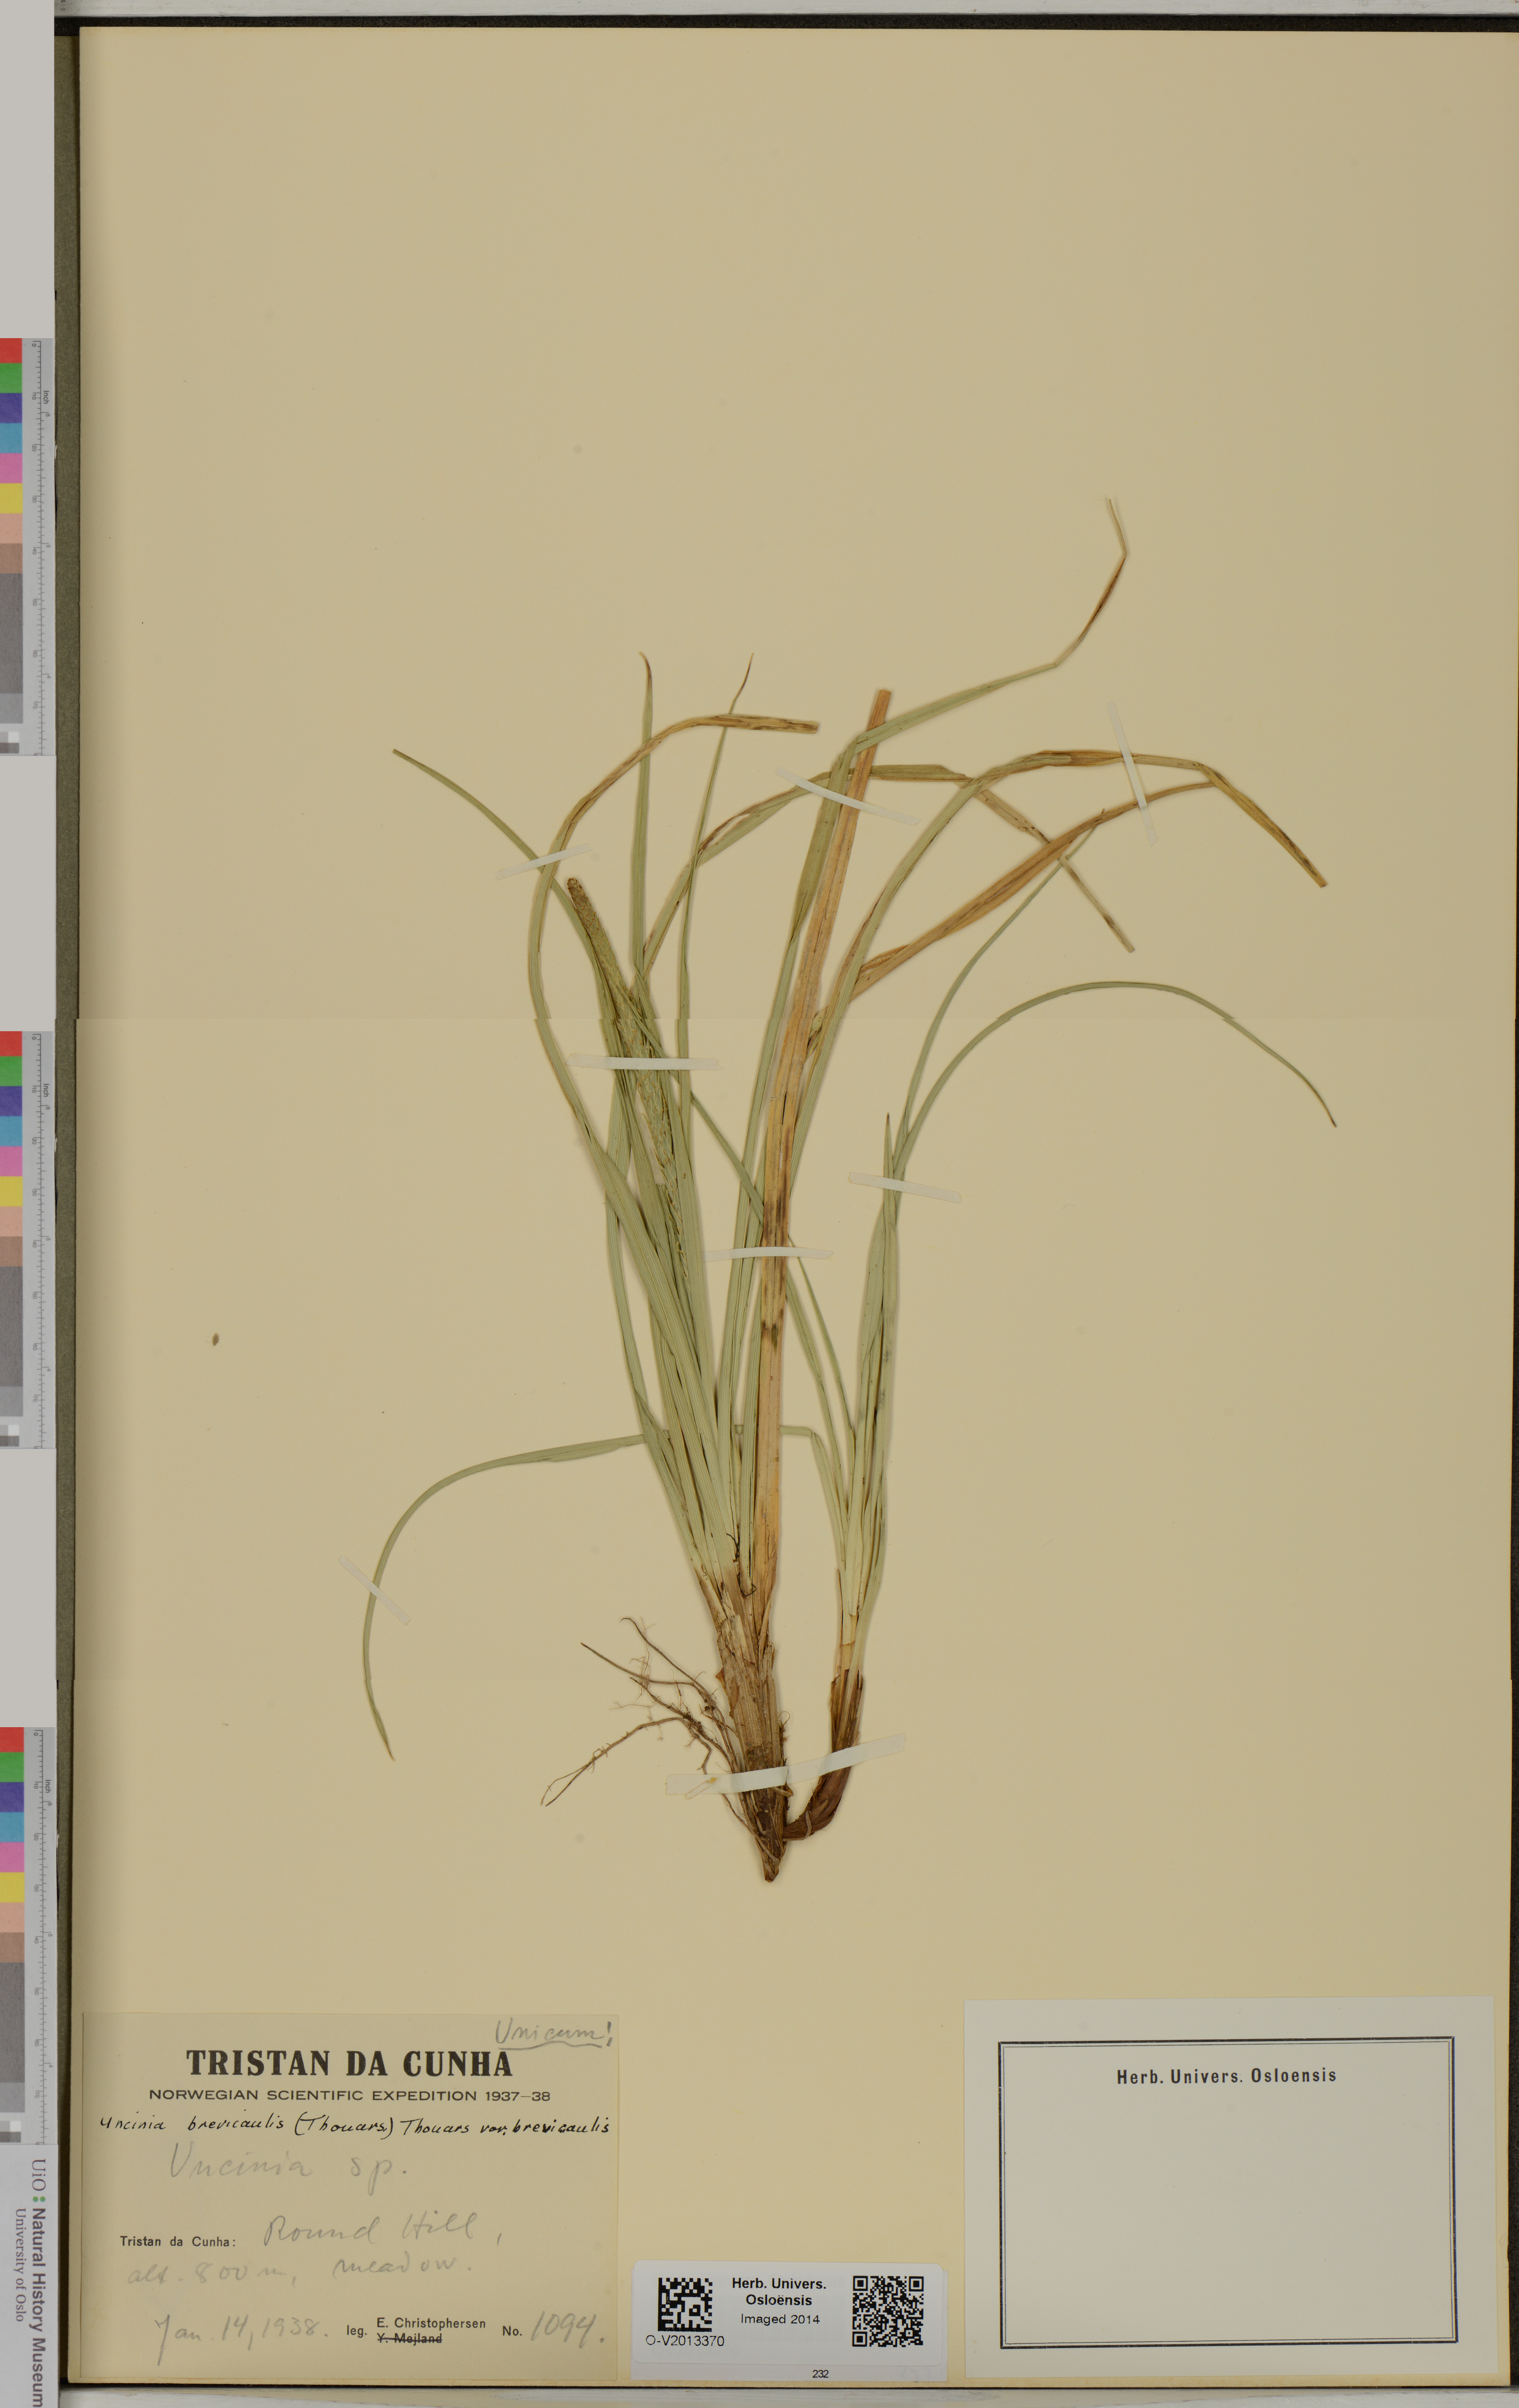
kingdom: Plantae
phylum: Tracheophyta
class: Liliopsida
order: Poales
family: Cyperaceae
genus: Carex
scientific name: Carex brevicaulis
